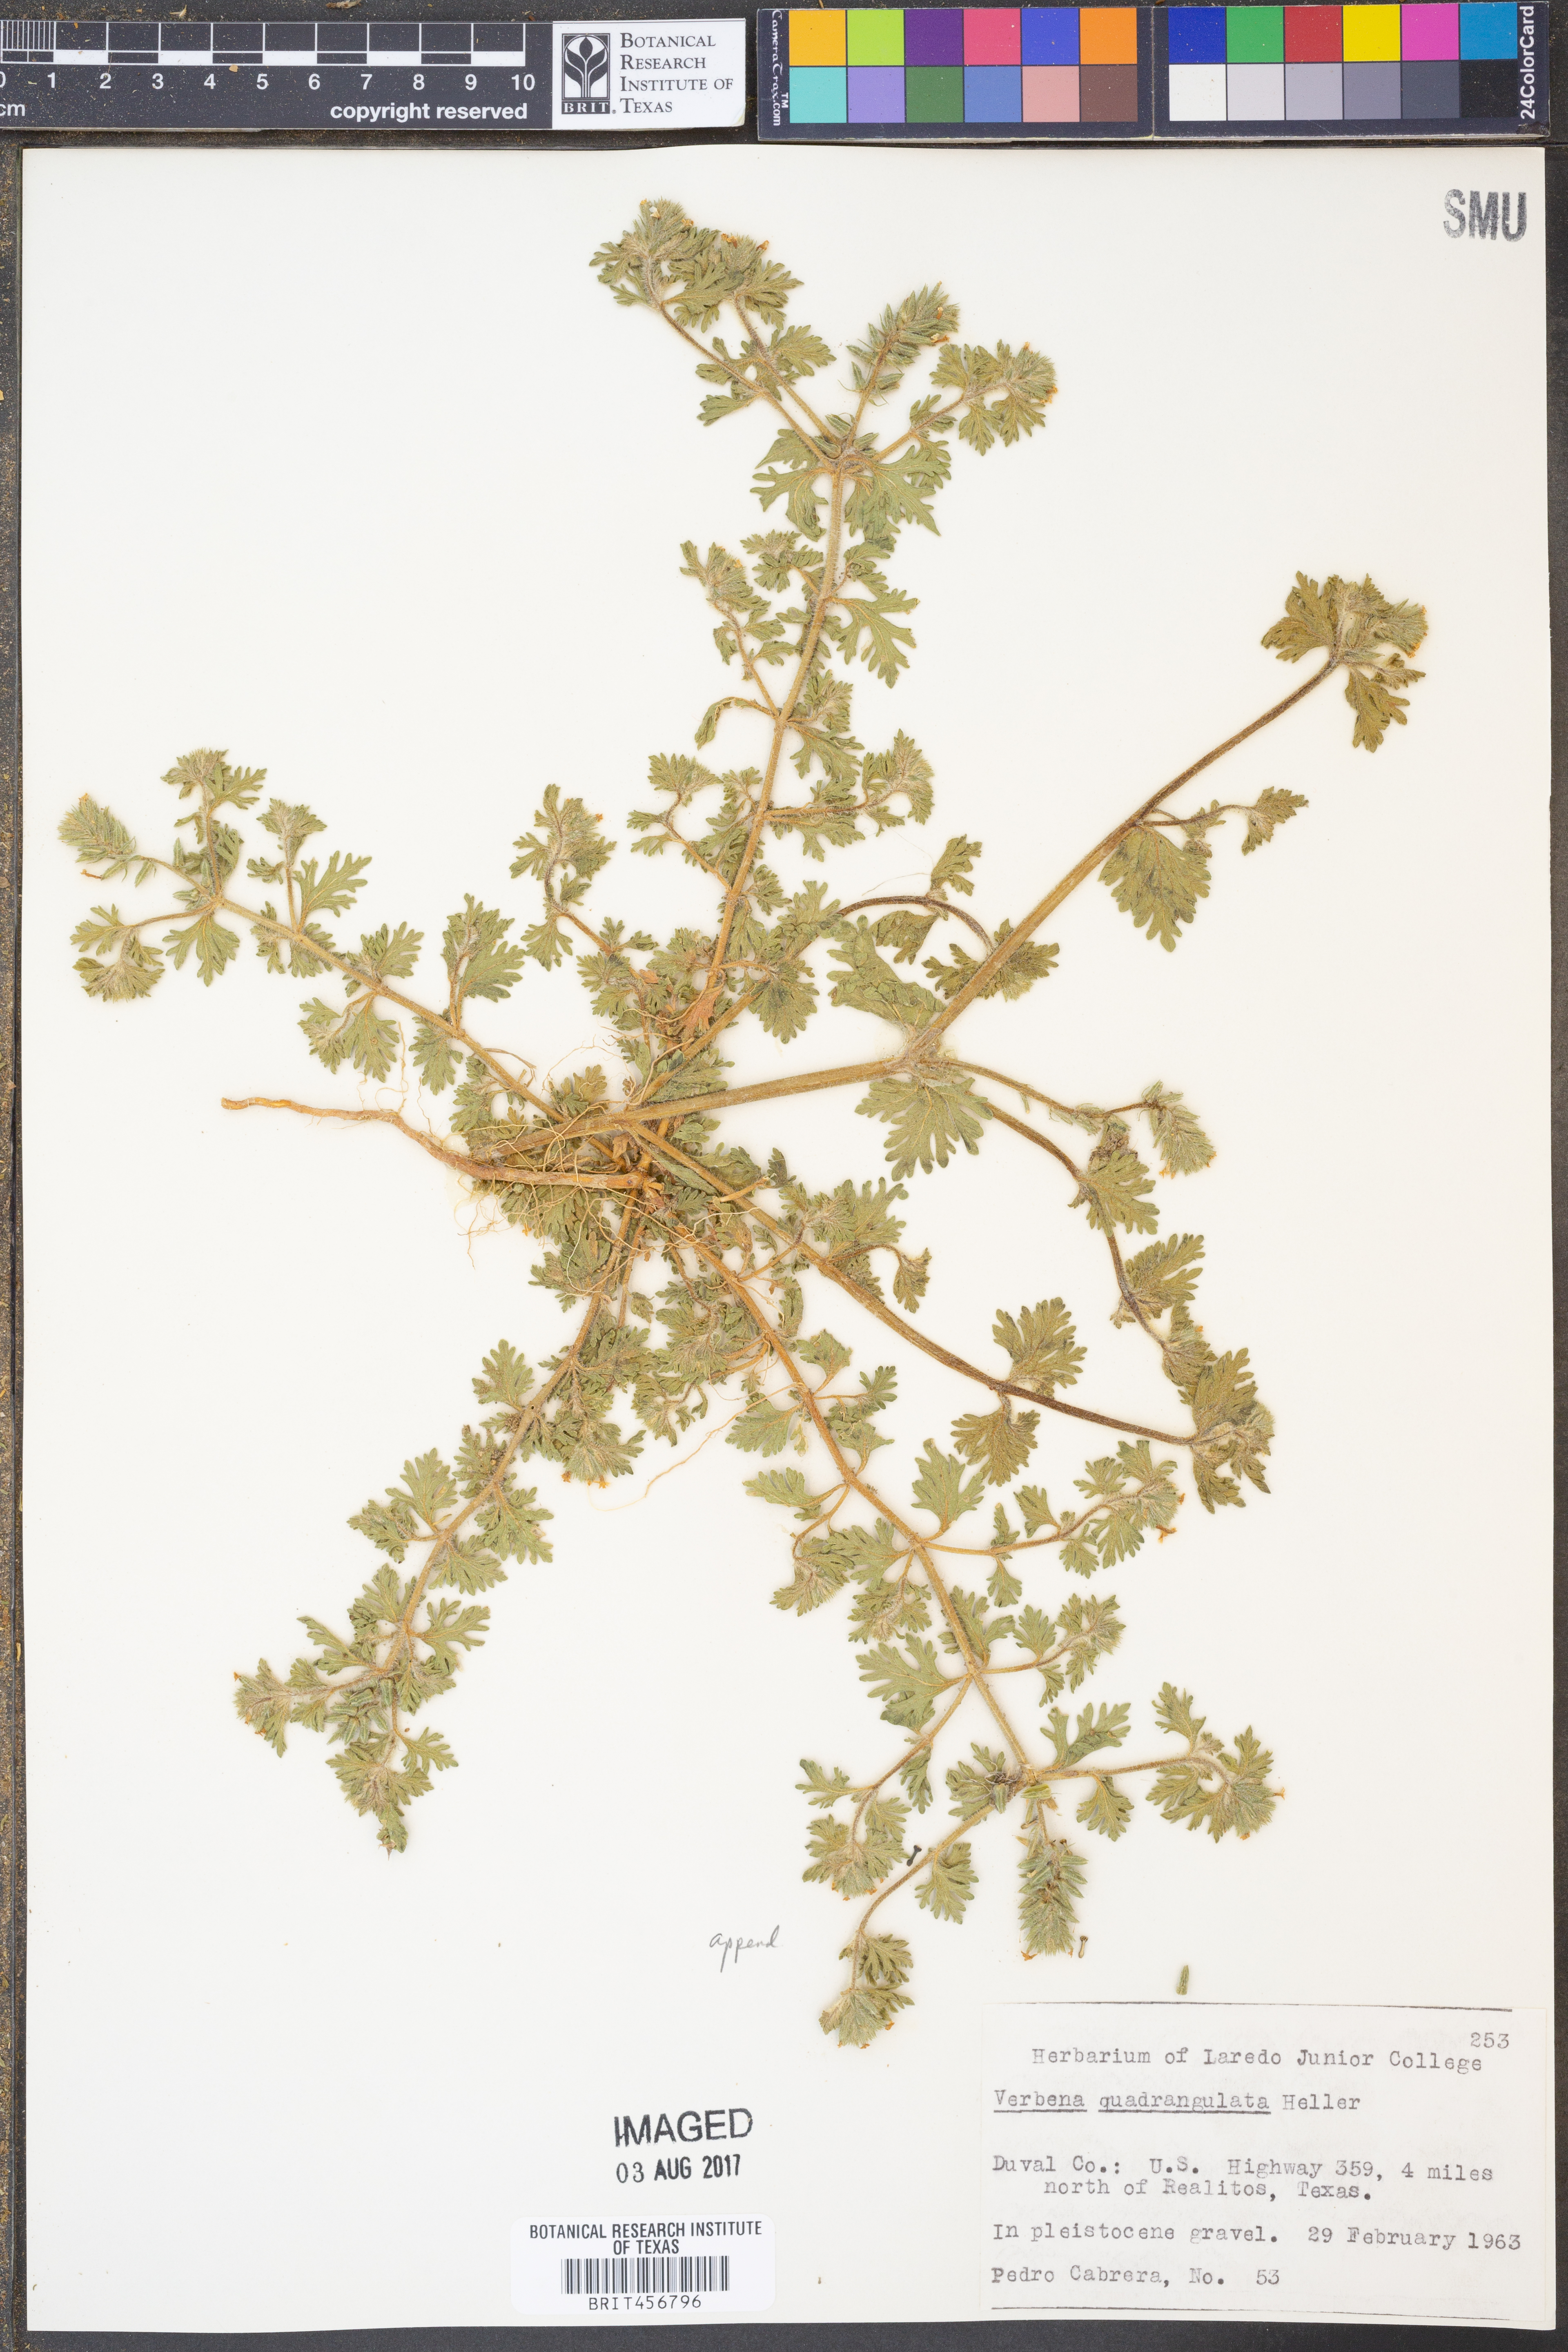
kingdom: Plantae
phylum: Tracheophyta
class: Magnoliopsida
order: Lamiales
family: Verbenaceae
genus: Verbena
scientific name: Verbena quadrangulata
